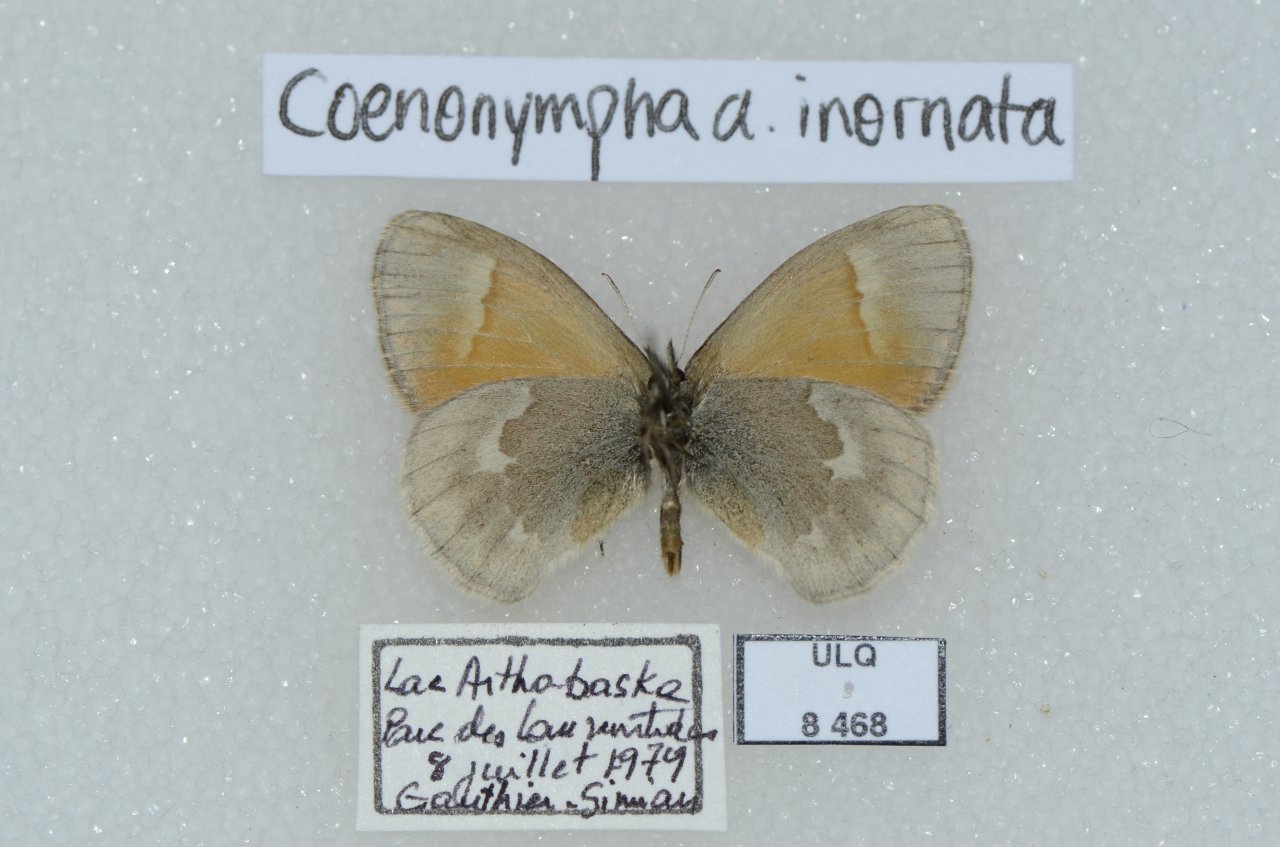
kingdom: Animalia
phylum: Arthropoda
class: Insecta
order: Lepidoptera
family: Nymphalidae
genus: Coenonympha
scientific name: Coenonympha tullia
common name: Large Heath
